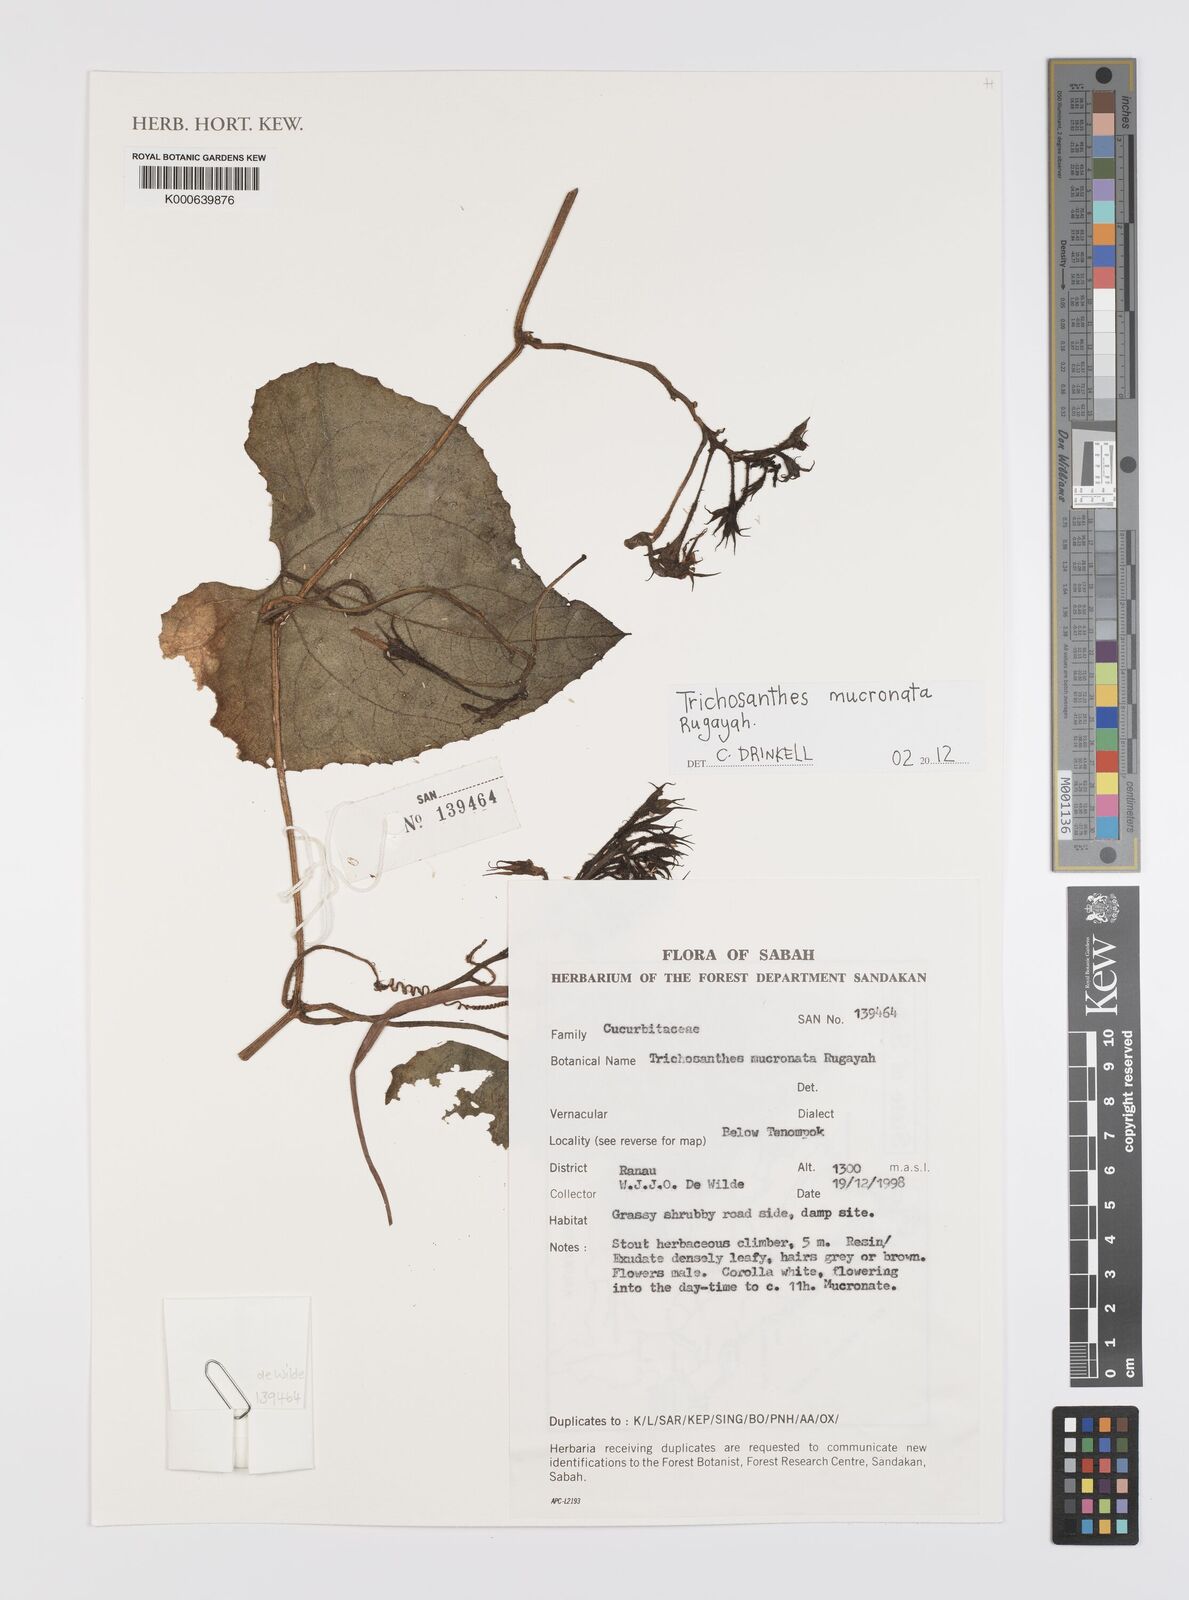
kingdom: Plantae
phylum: Tracheophyta
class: Magnoliopsida
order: Cucurbitales
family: Cucurbitaceae
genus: Trichosanthes
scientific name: Trichosanthes mucronata
